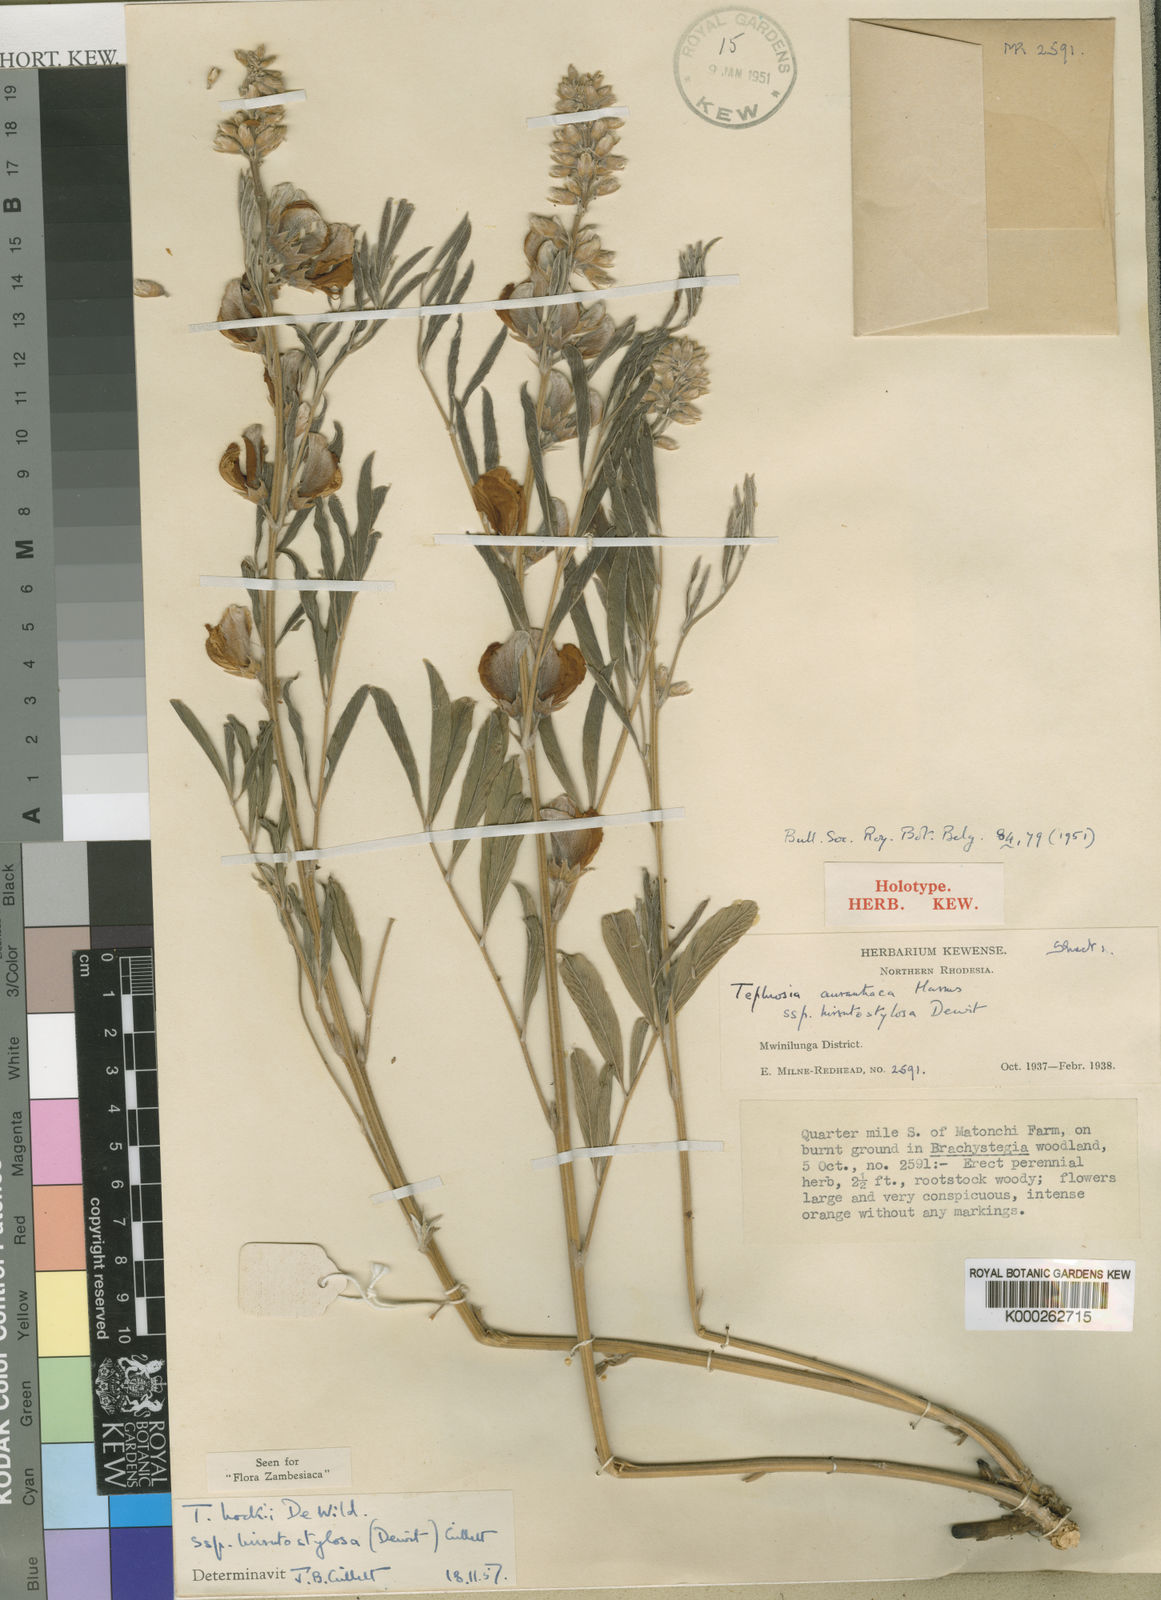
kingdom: Plantae
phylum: Tracheophyta
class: Magnoliopsida
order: Fabales
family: Fabaceae
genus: Tephrosia
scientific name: Tephrosia hockii
